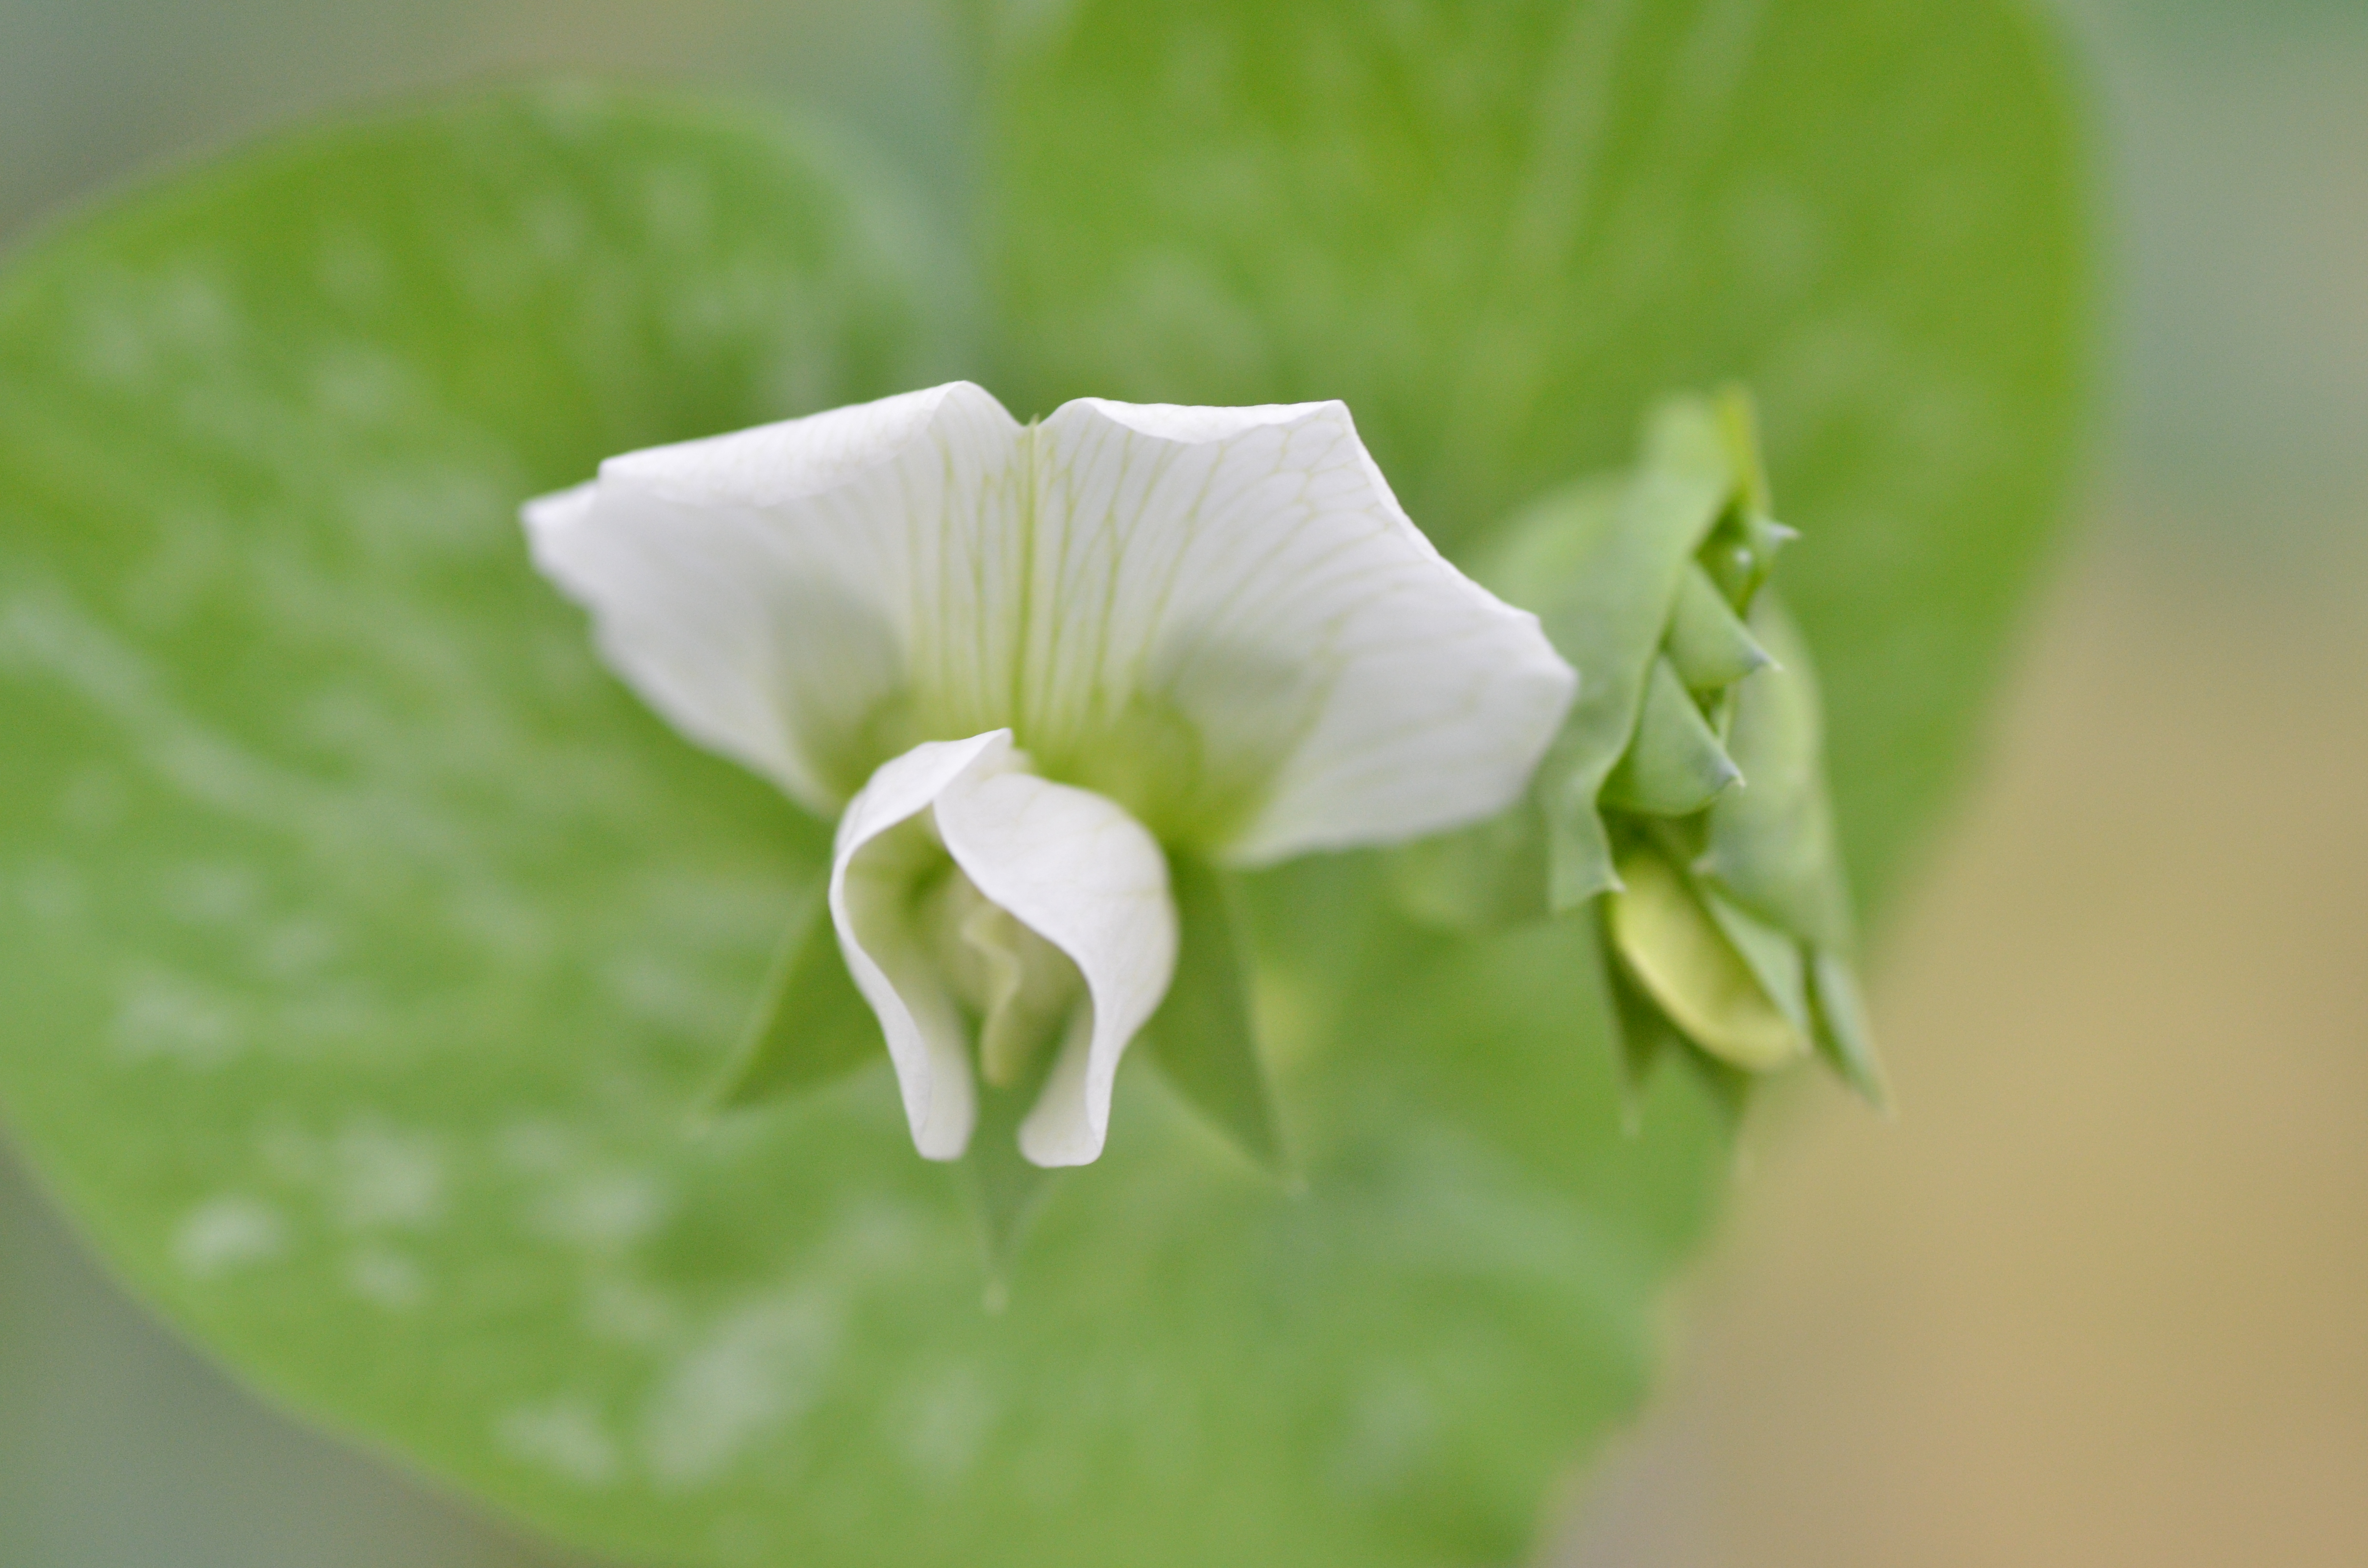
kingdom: Plantae
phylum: Tracheophyta
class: Magnoliopsida
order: Fabales
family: Fabaceae
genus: Lathyrus
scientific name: Lathyrus oleraceus
